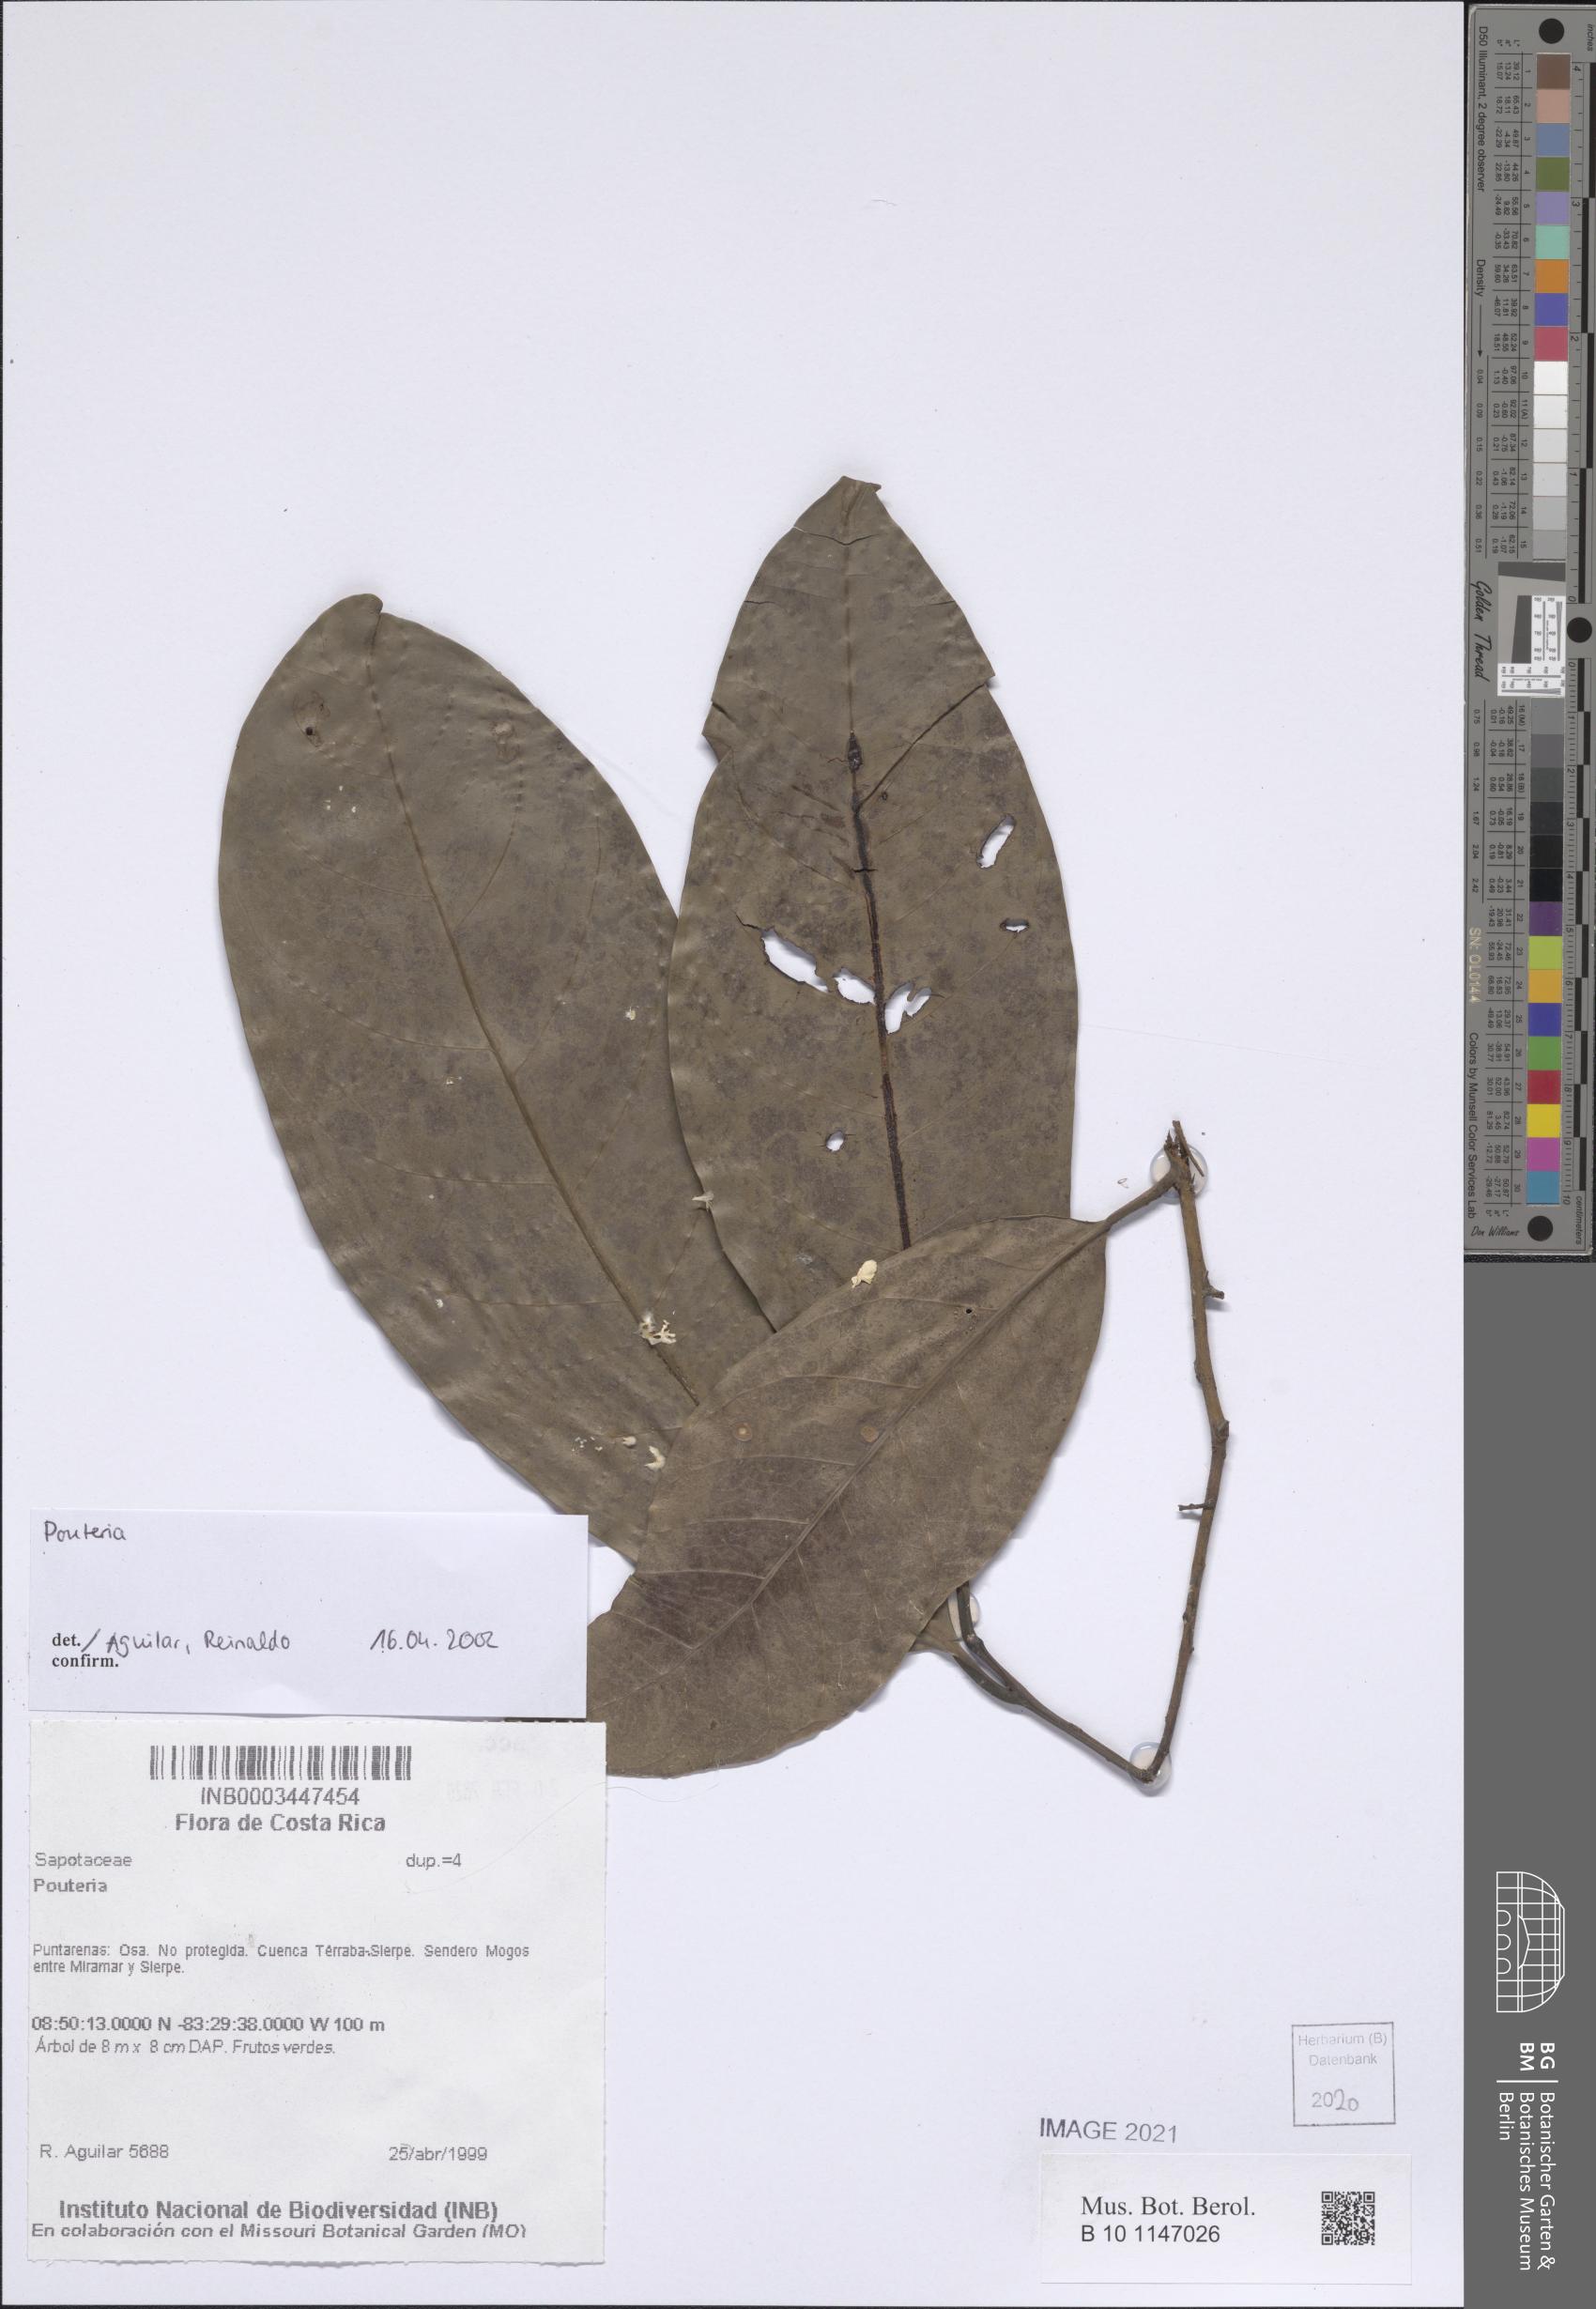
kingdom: Plantae
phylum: Tracheophyta
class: Magnoliopsida
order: Ericales
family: Sapotaceae
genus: Pouteria
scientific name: Pouteria
